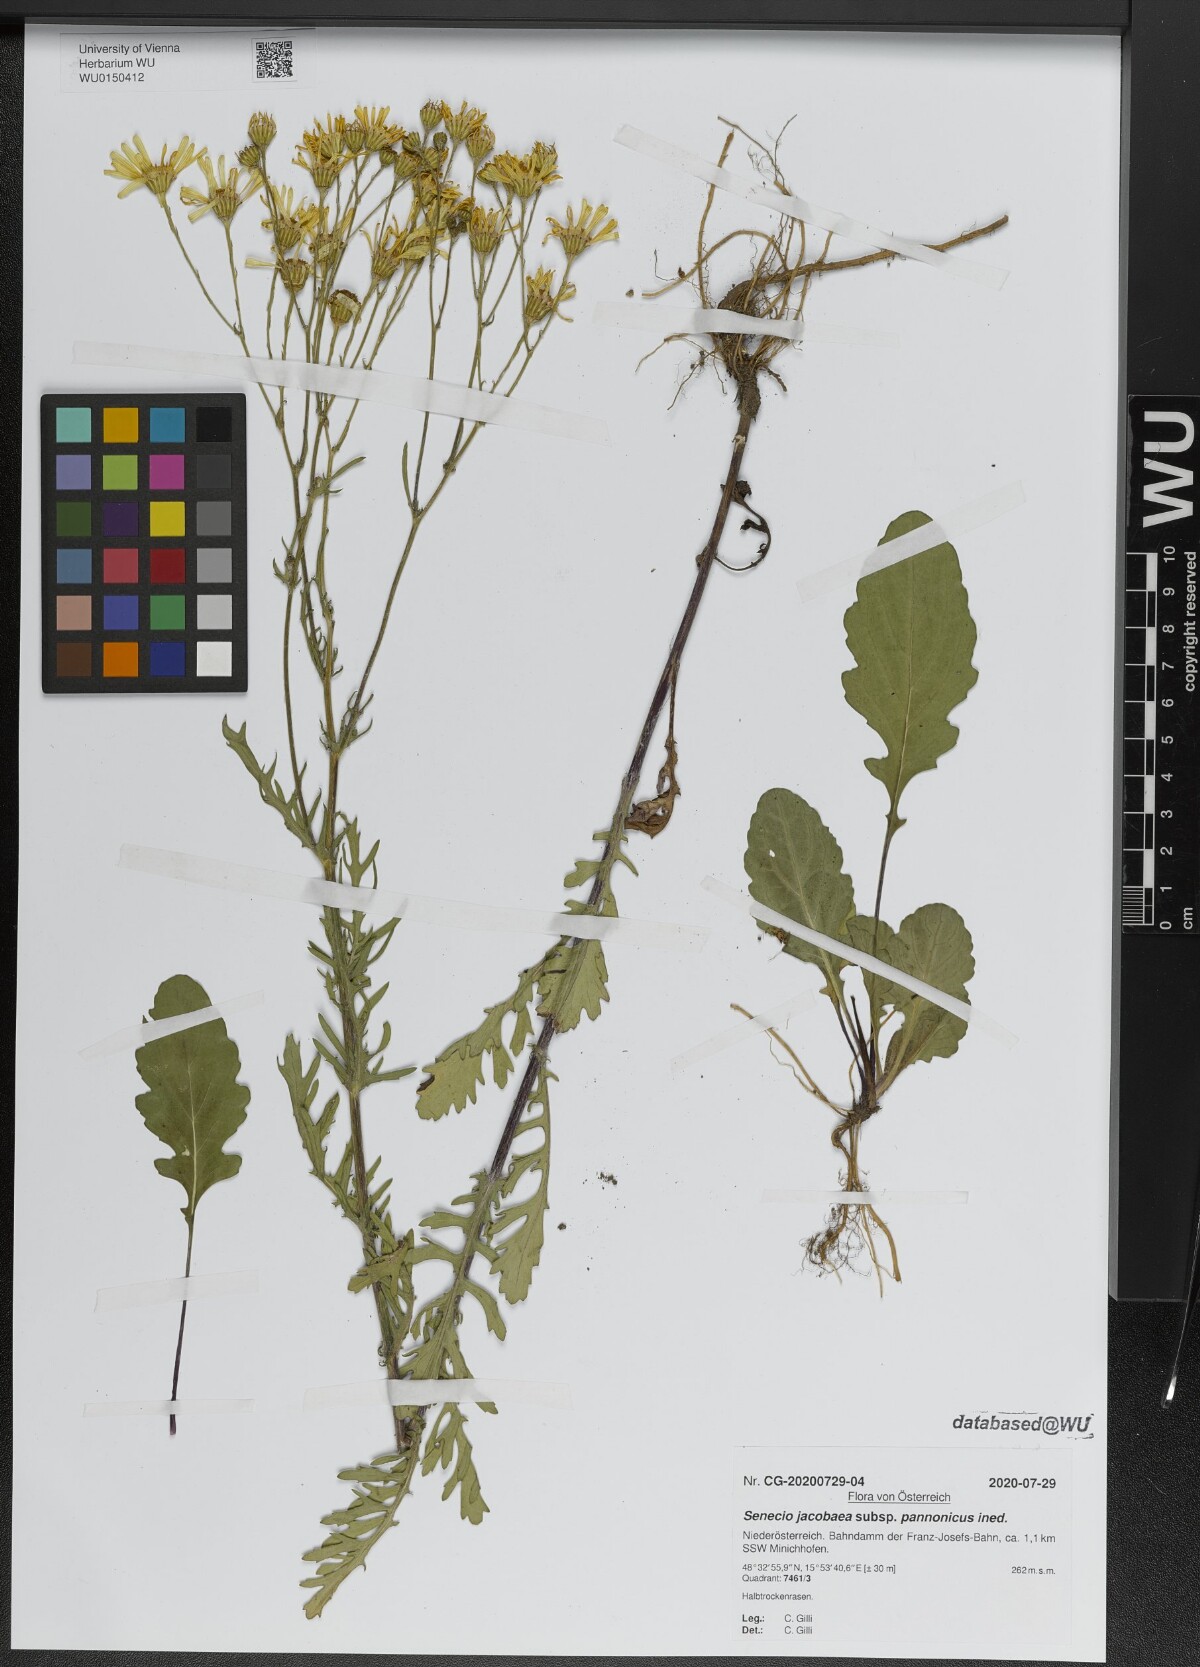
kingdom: Plantae
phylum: Tracheophyta
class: Magnoliopsida
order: Asterales
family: Asteraceae
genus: Senecio
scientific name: Senecio jacobaea
